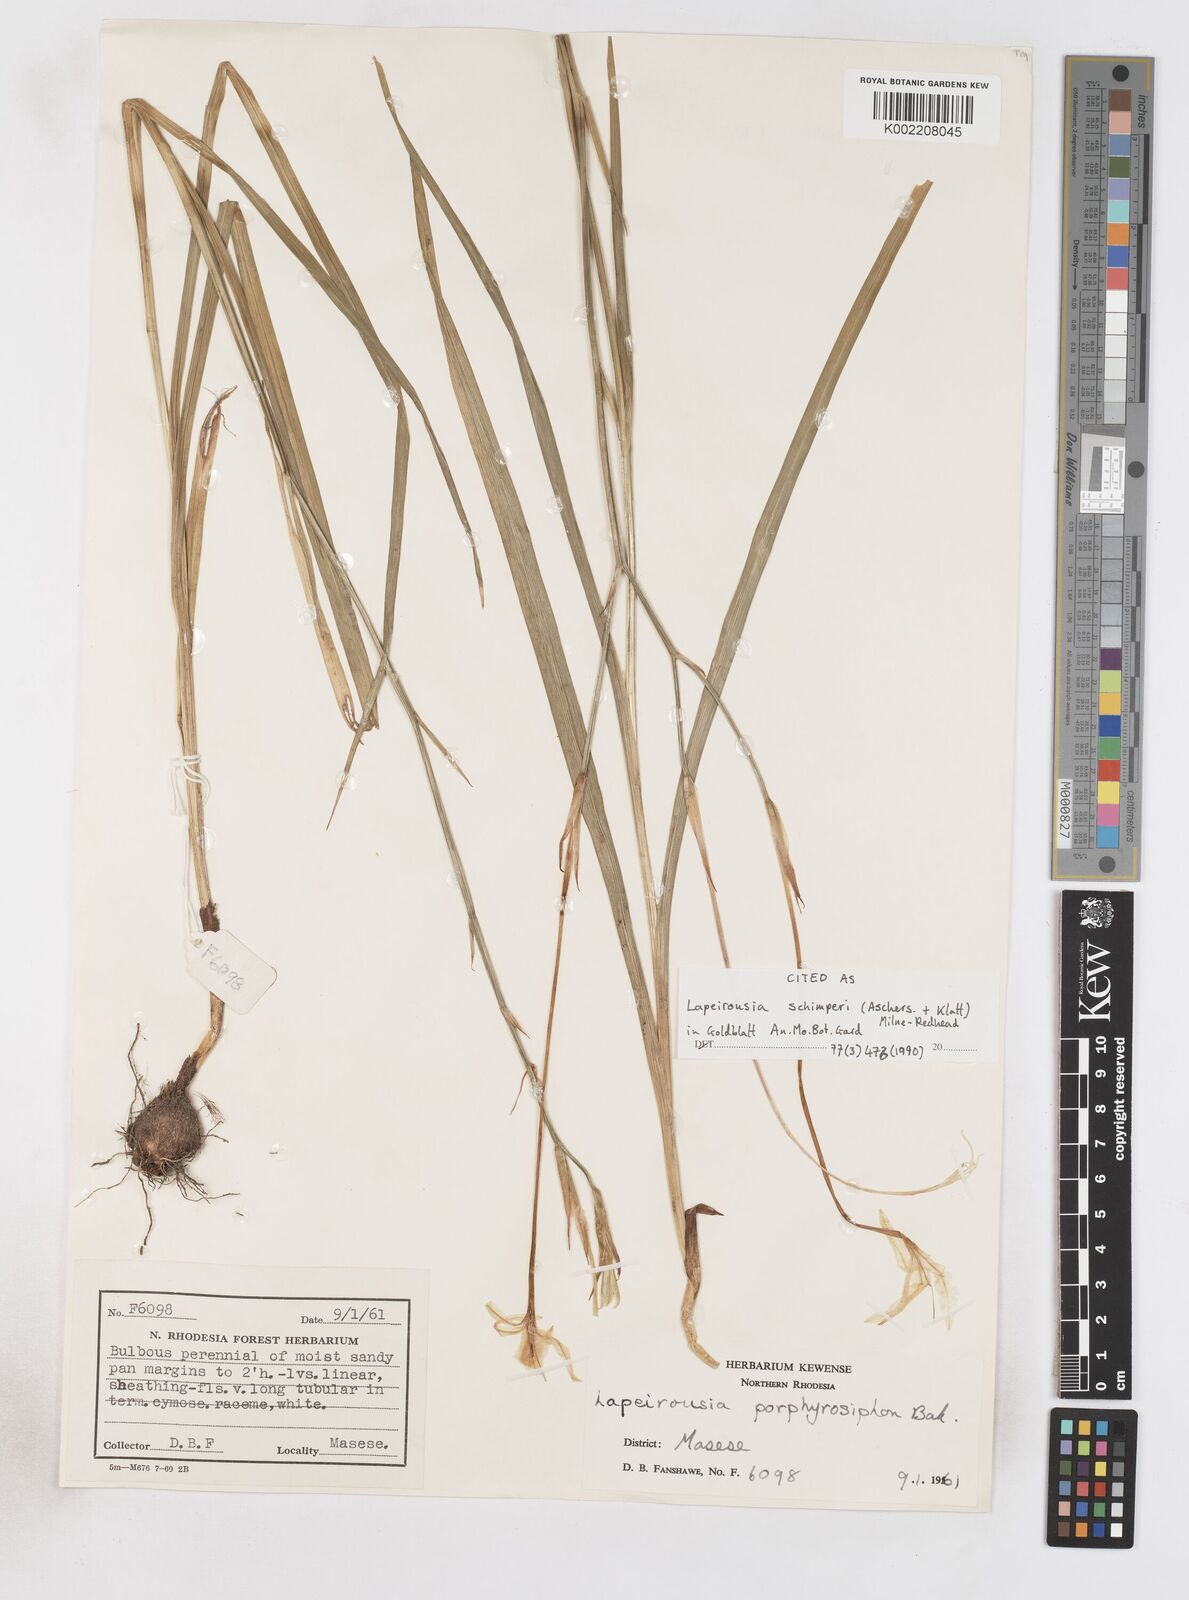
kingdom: Plantae
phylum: Tracheophyta
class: Liliopsida
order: Asparagales
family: Iridaceae
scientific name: Iridaceae
